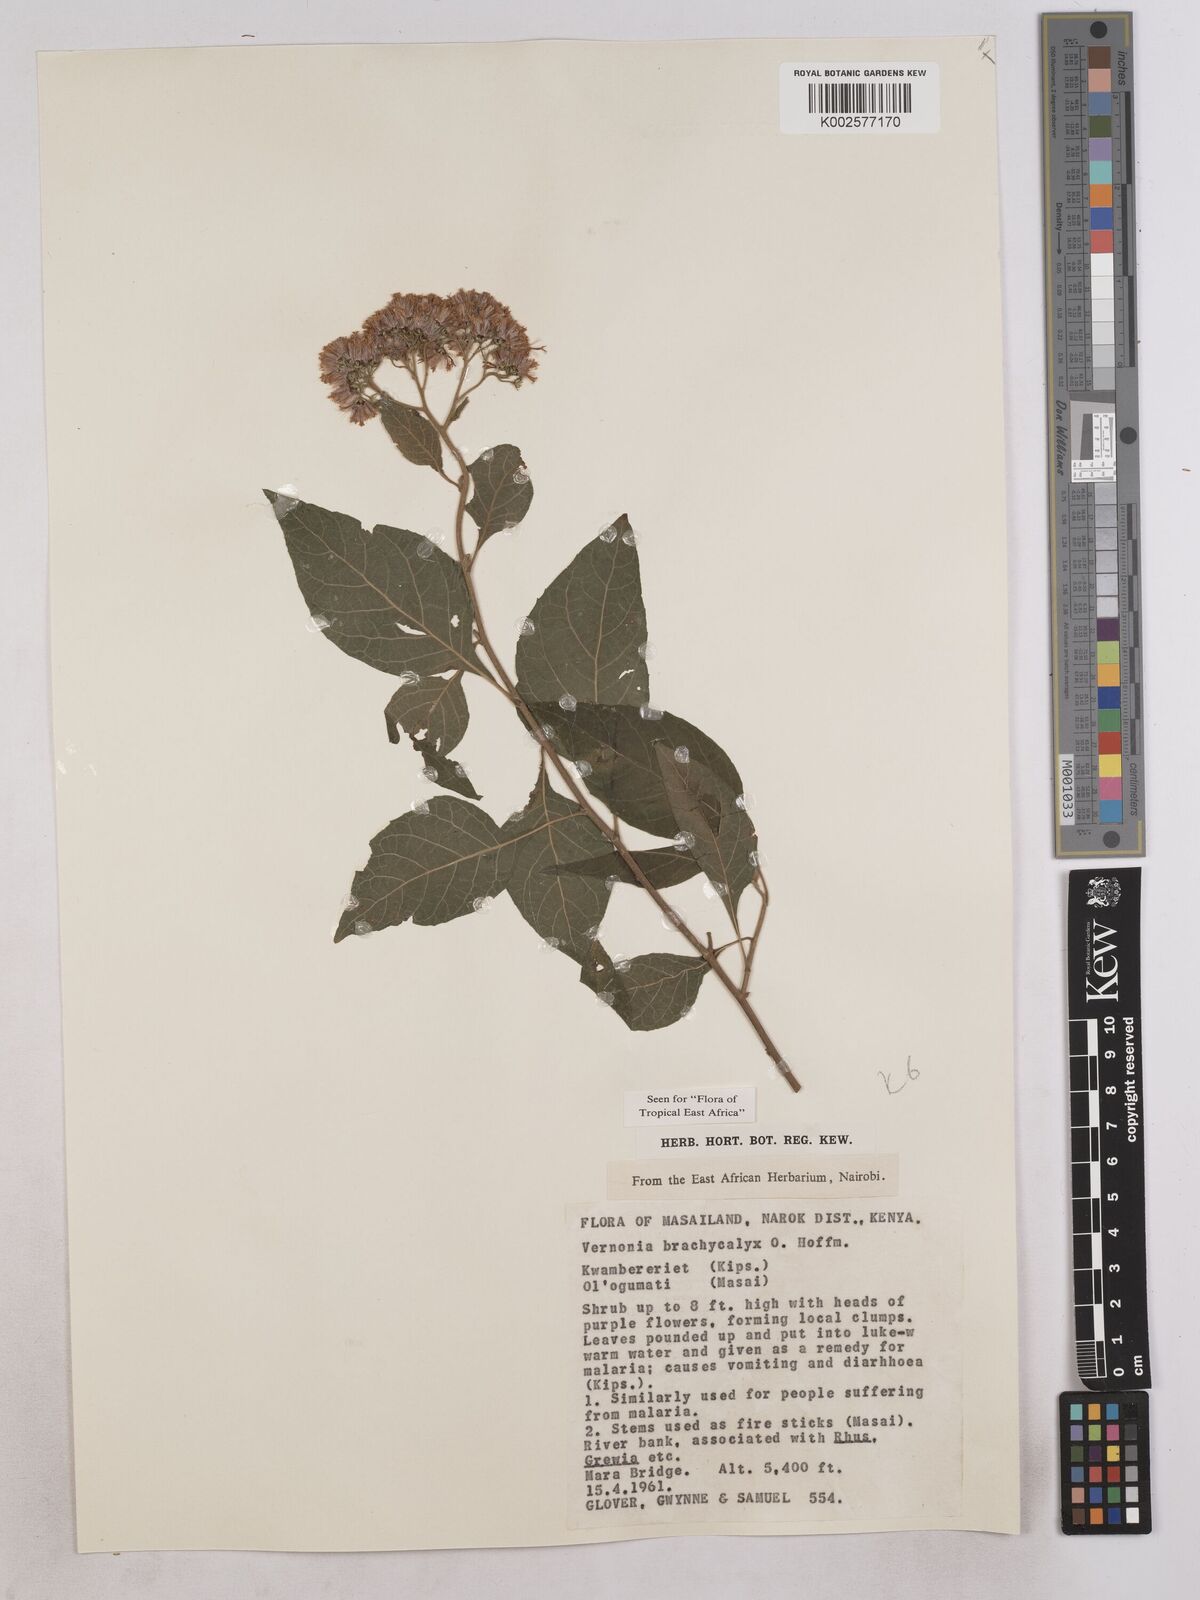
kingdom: Plantae
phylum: Tracheophyta
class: Magnoliopsida
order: Asterales
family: Asteraceae
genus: Hoffmannanthus
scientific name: Hoffmannanthus abbotianus
